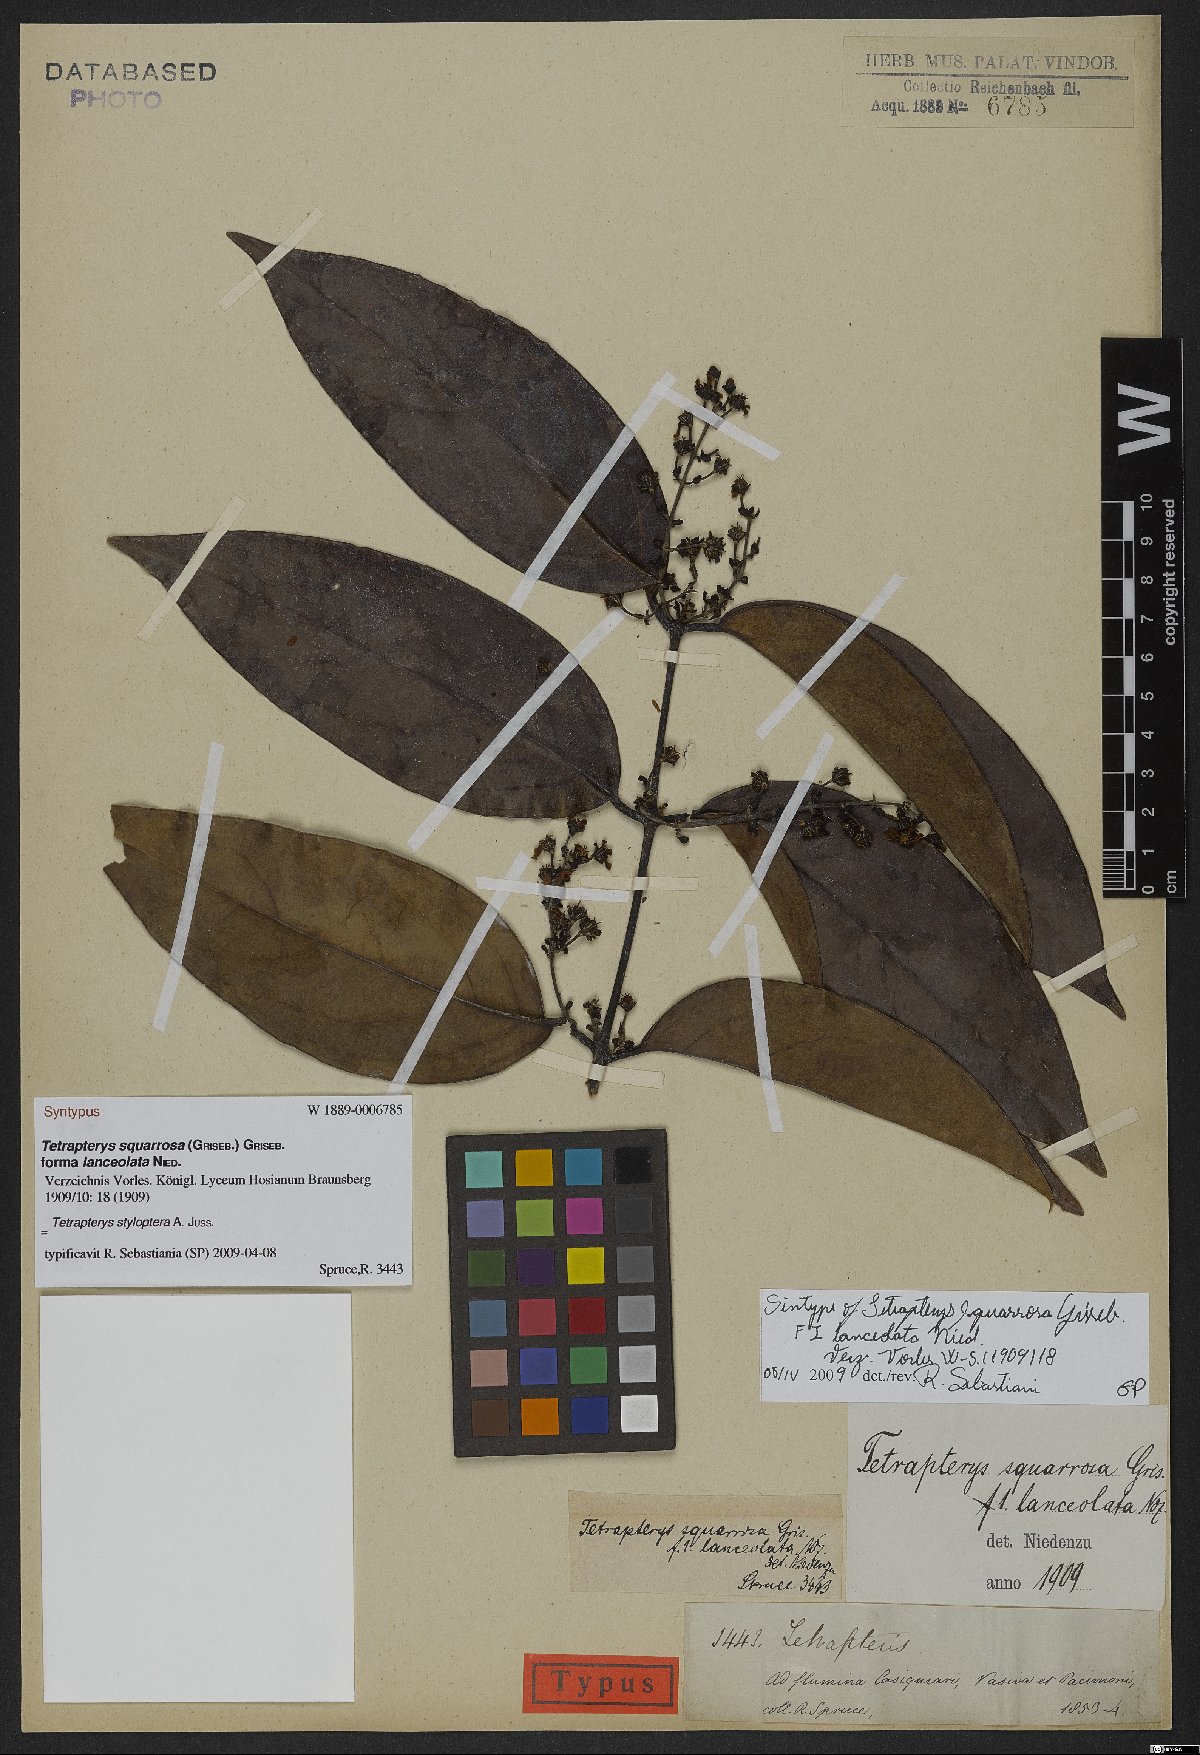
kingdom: Plantae
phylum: Tracheophyta
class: Magnoliopsida
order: Malpighiales
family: Malpighiaceae
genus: Glicophyllum
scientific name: Glicophyllum stylopterum
